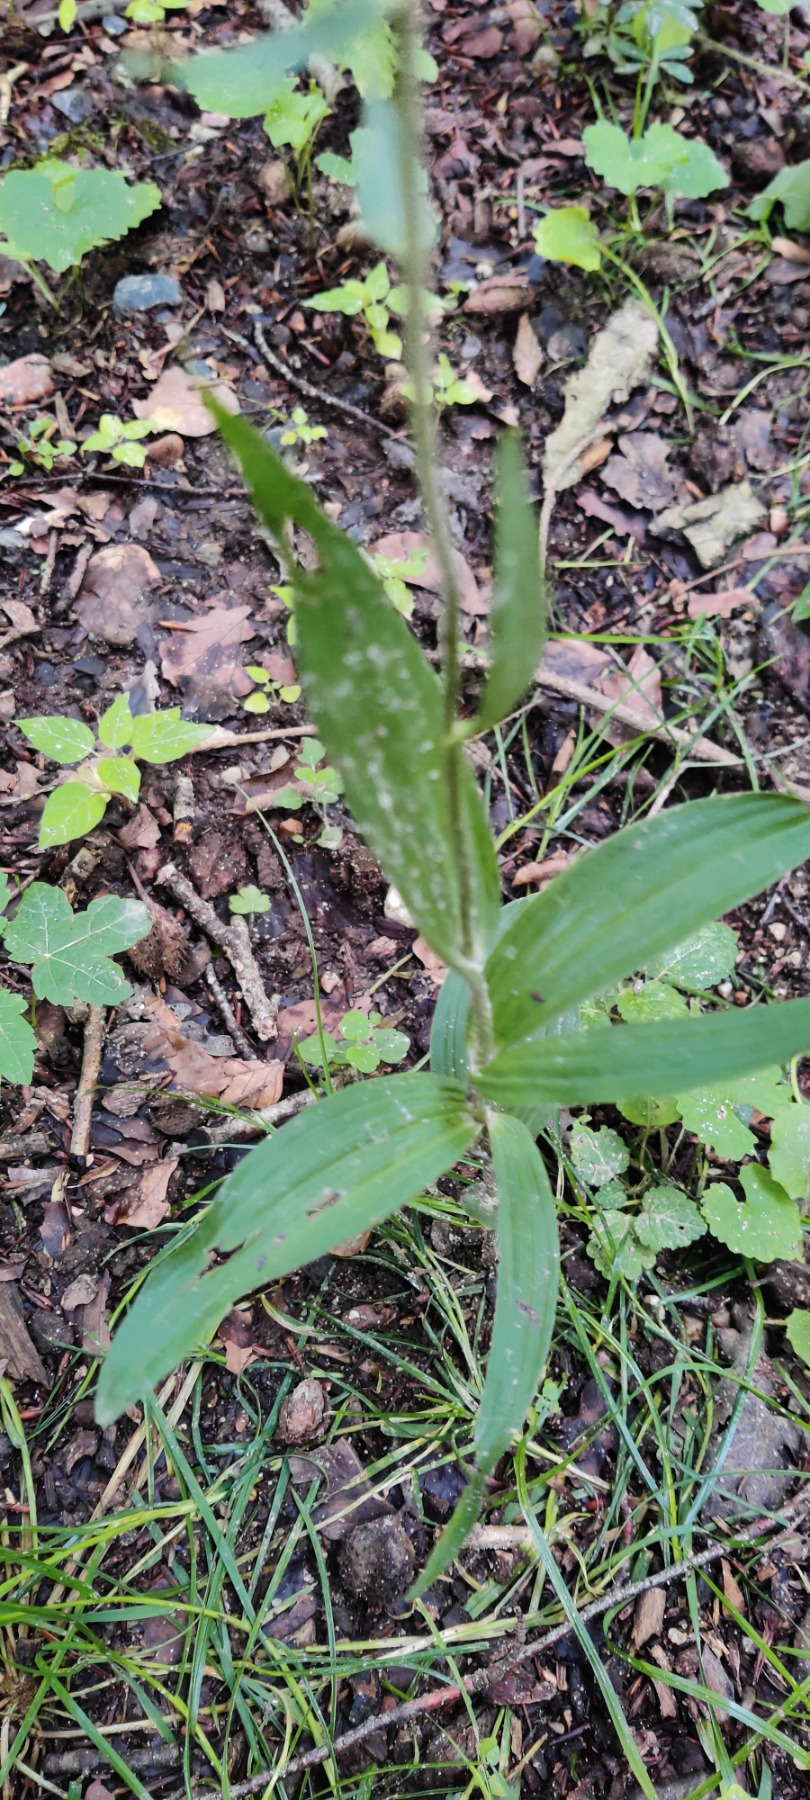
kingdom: Plantae
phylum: Tracheophyta
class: Liliopsida
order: Asparagales
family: Orchidaceae
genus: Epipactis
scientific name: Epipactis helleborine
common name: Skov-hullæbe
